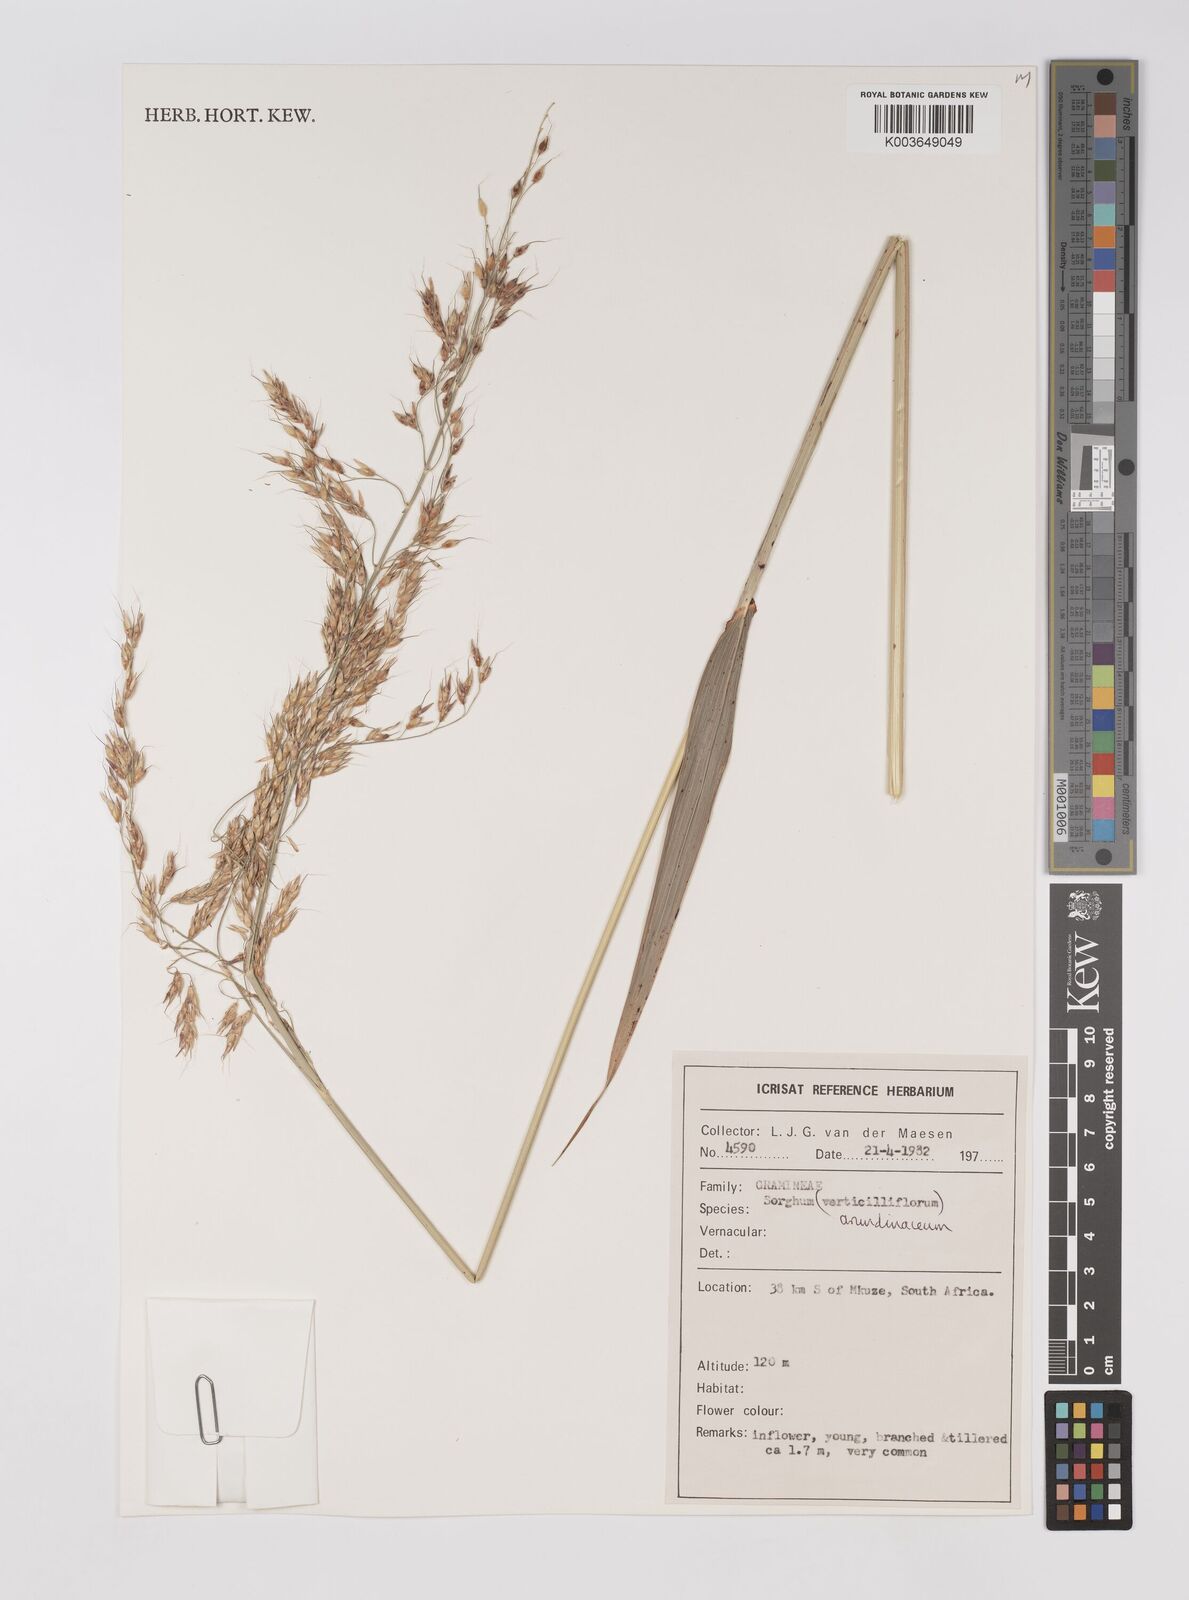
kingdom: Plantae
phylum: Tracheophyta
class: Liliopsida
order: Poales
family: Poaceae
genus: Sorghum
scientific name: Sorghum arundinaceum
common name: Sorghum
